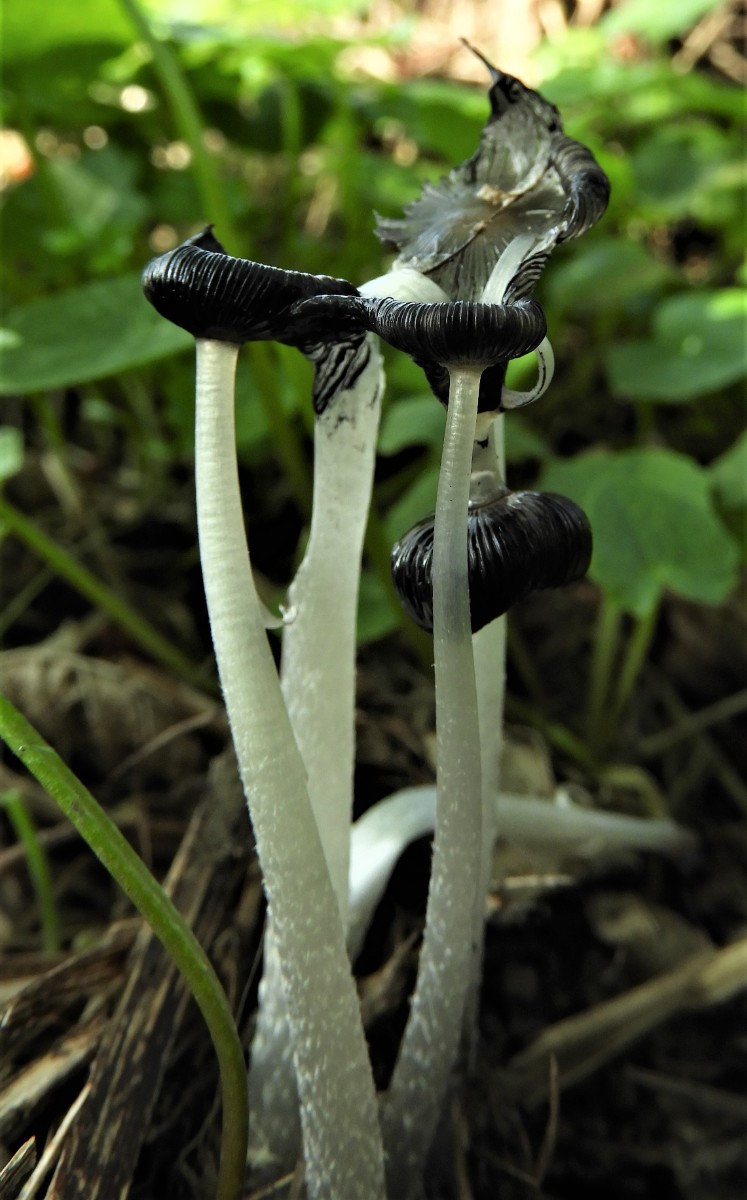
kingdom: Fungi
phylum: Basidiomycota
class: Agaricomycetes
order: Agaricales
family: Psathyrellaceae
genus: Coprinopsis
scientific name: Coprinopsis lagopus
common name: dunstokket blækhat
